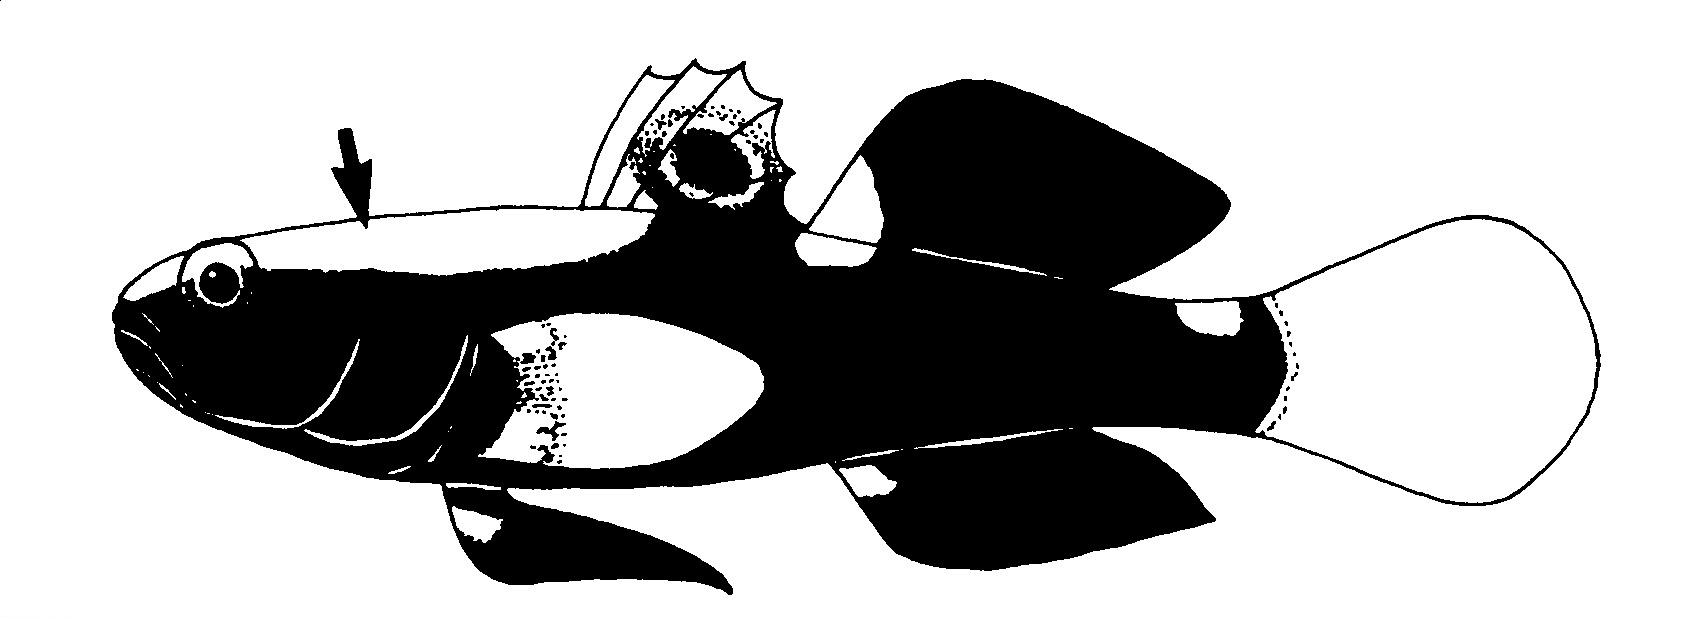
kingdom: Animalia
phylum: Chordata
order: Perciformes
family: Gobiidae
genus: Lotilia
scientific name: Lotilia graciliosa
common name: Whitecap goby
